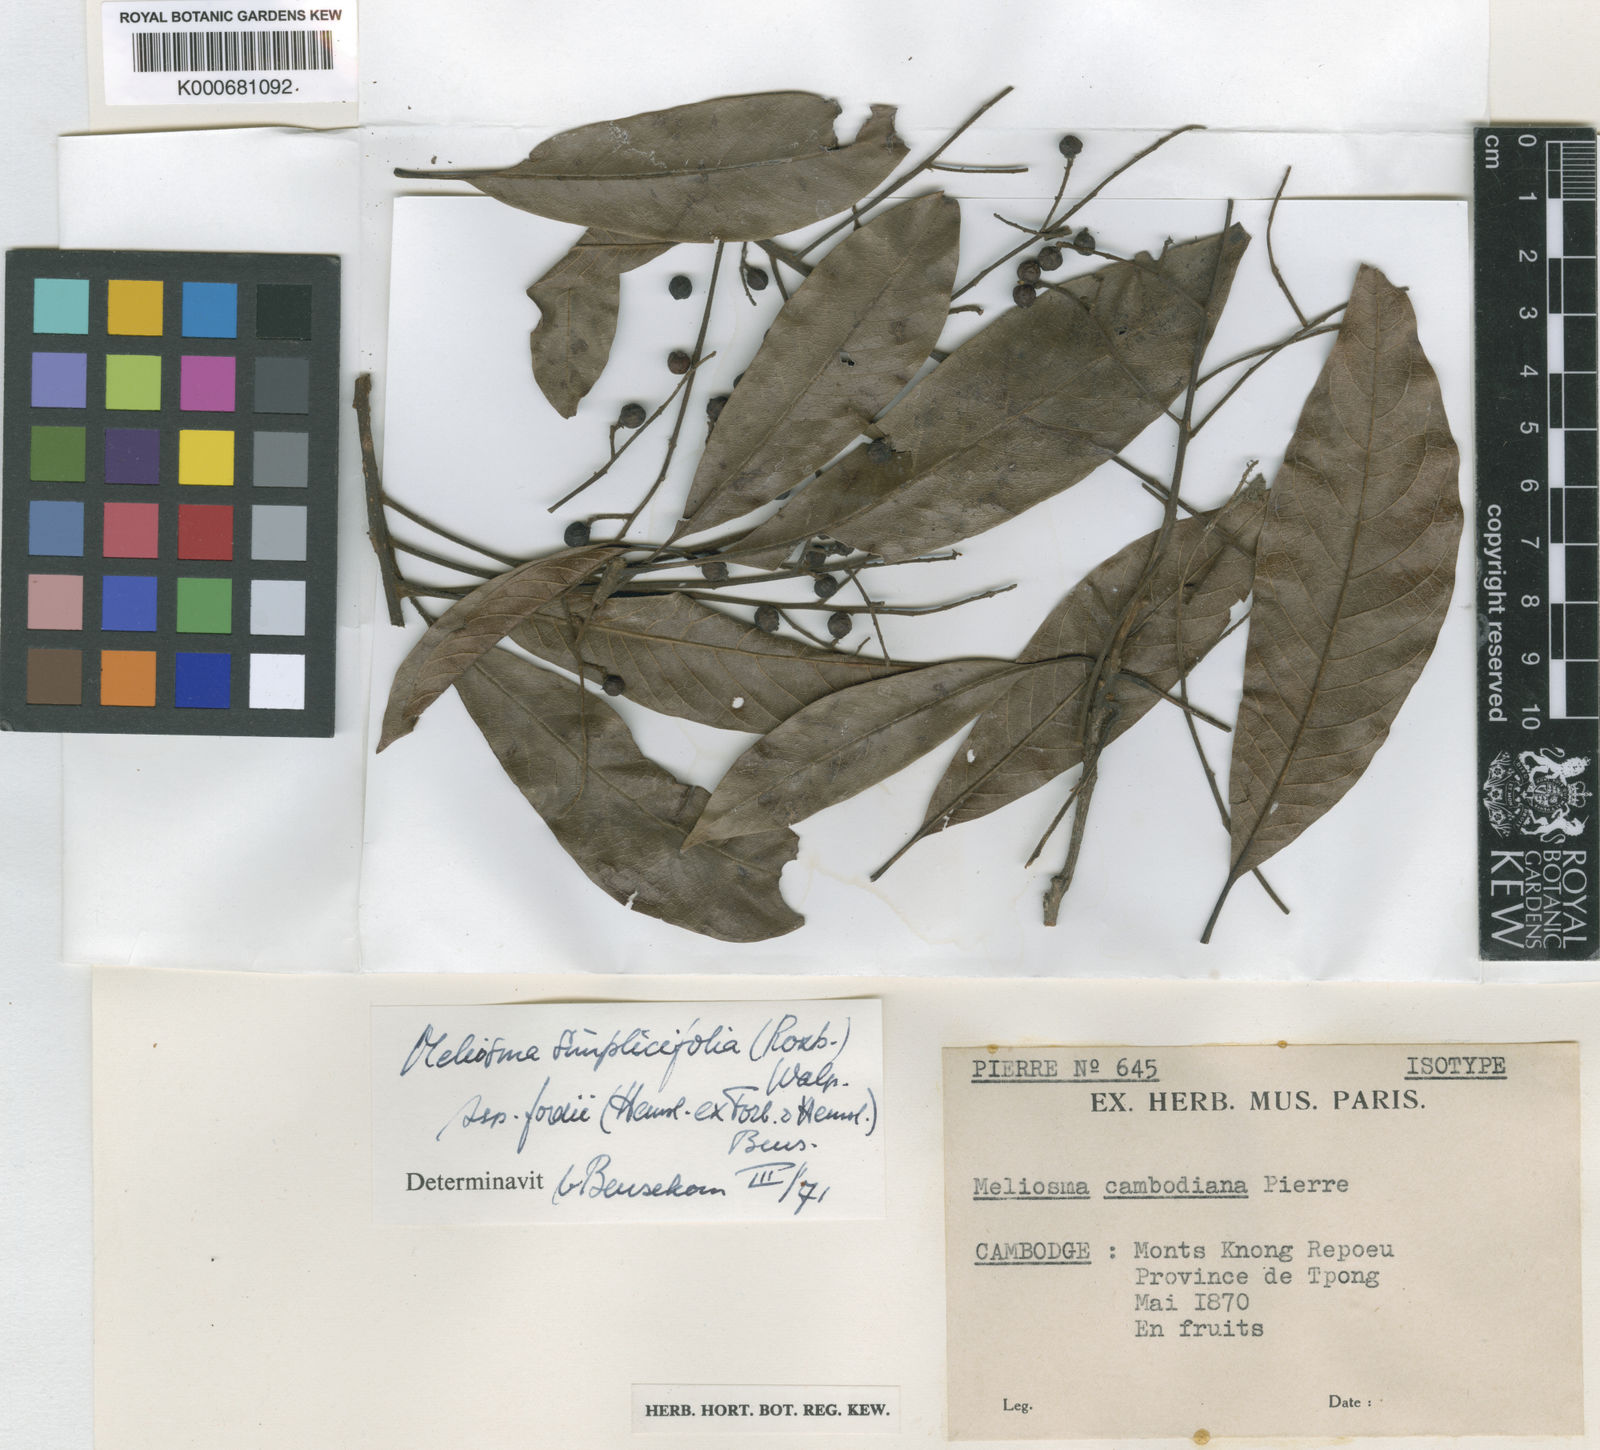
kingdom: Plantae
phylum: Tracheophyta
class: Magnoliopsida
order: Proteales
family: Sabiaceae
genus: Meliosma
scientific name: Meliosma fordii
